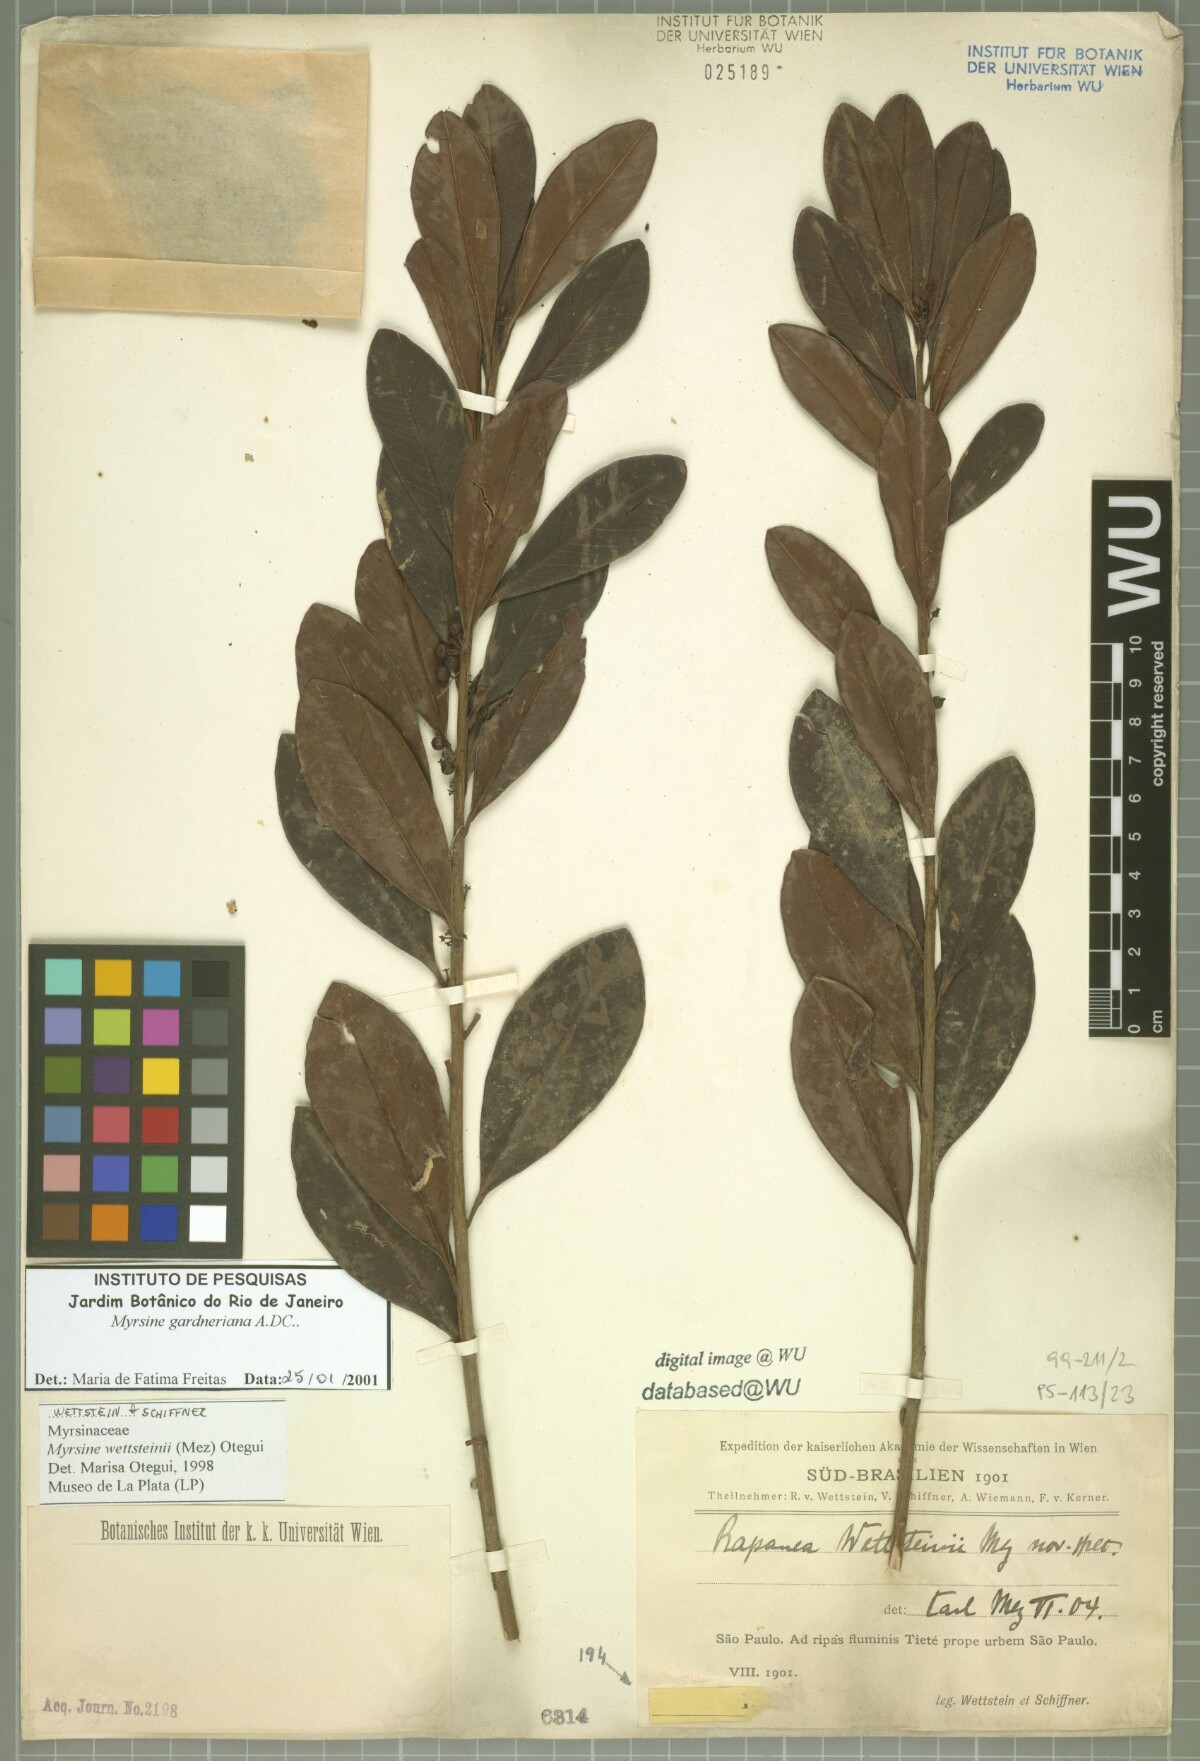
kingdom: Plantae
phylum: Tracheophyta
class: Magnoliopsida
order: Ericales
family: Primulaceae
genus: Myrsine
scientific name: Myrsine wettsteinii
